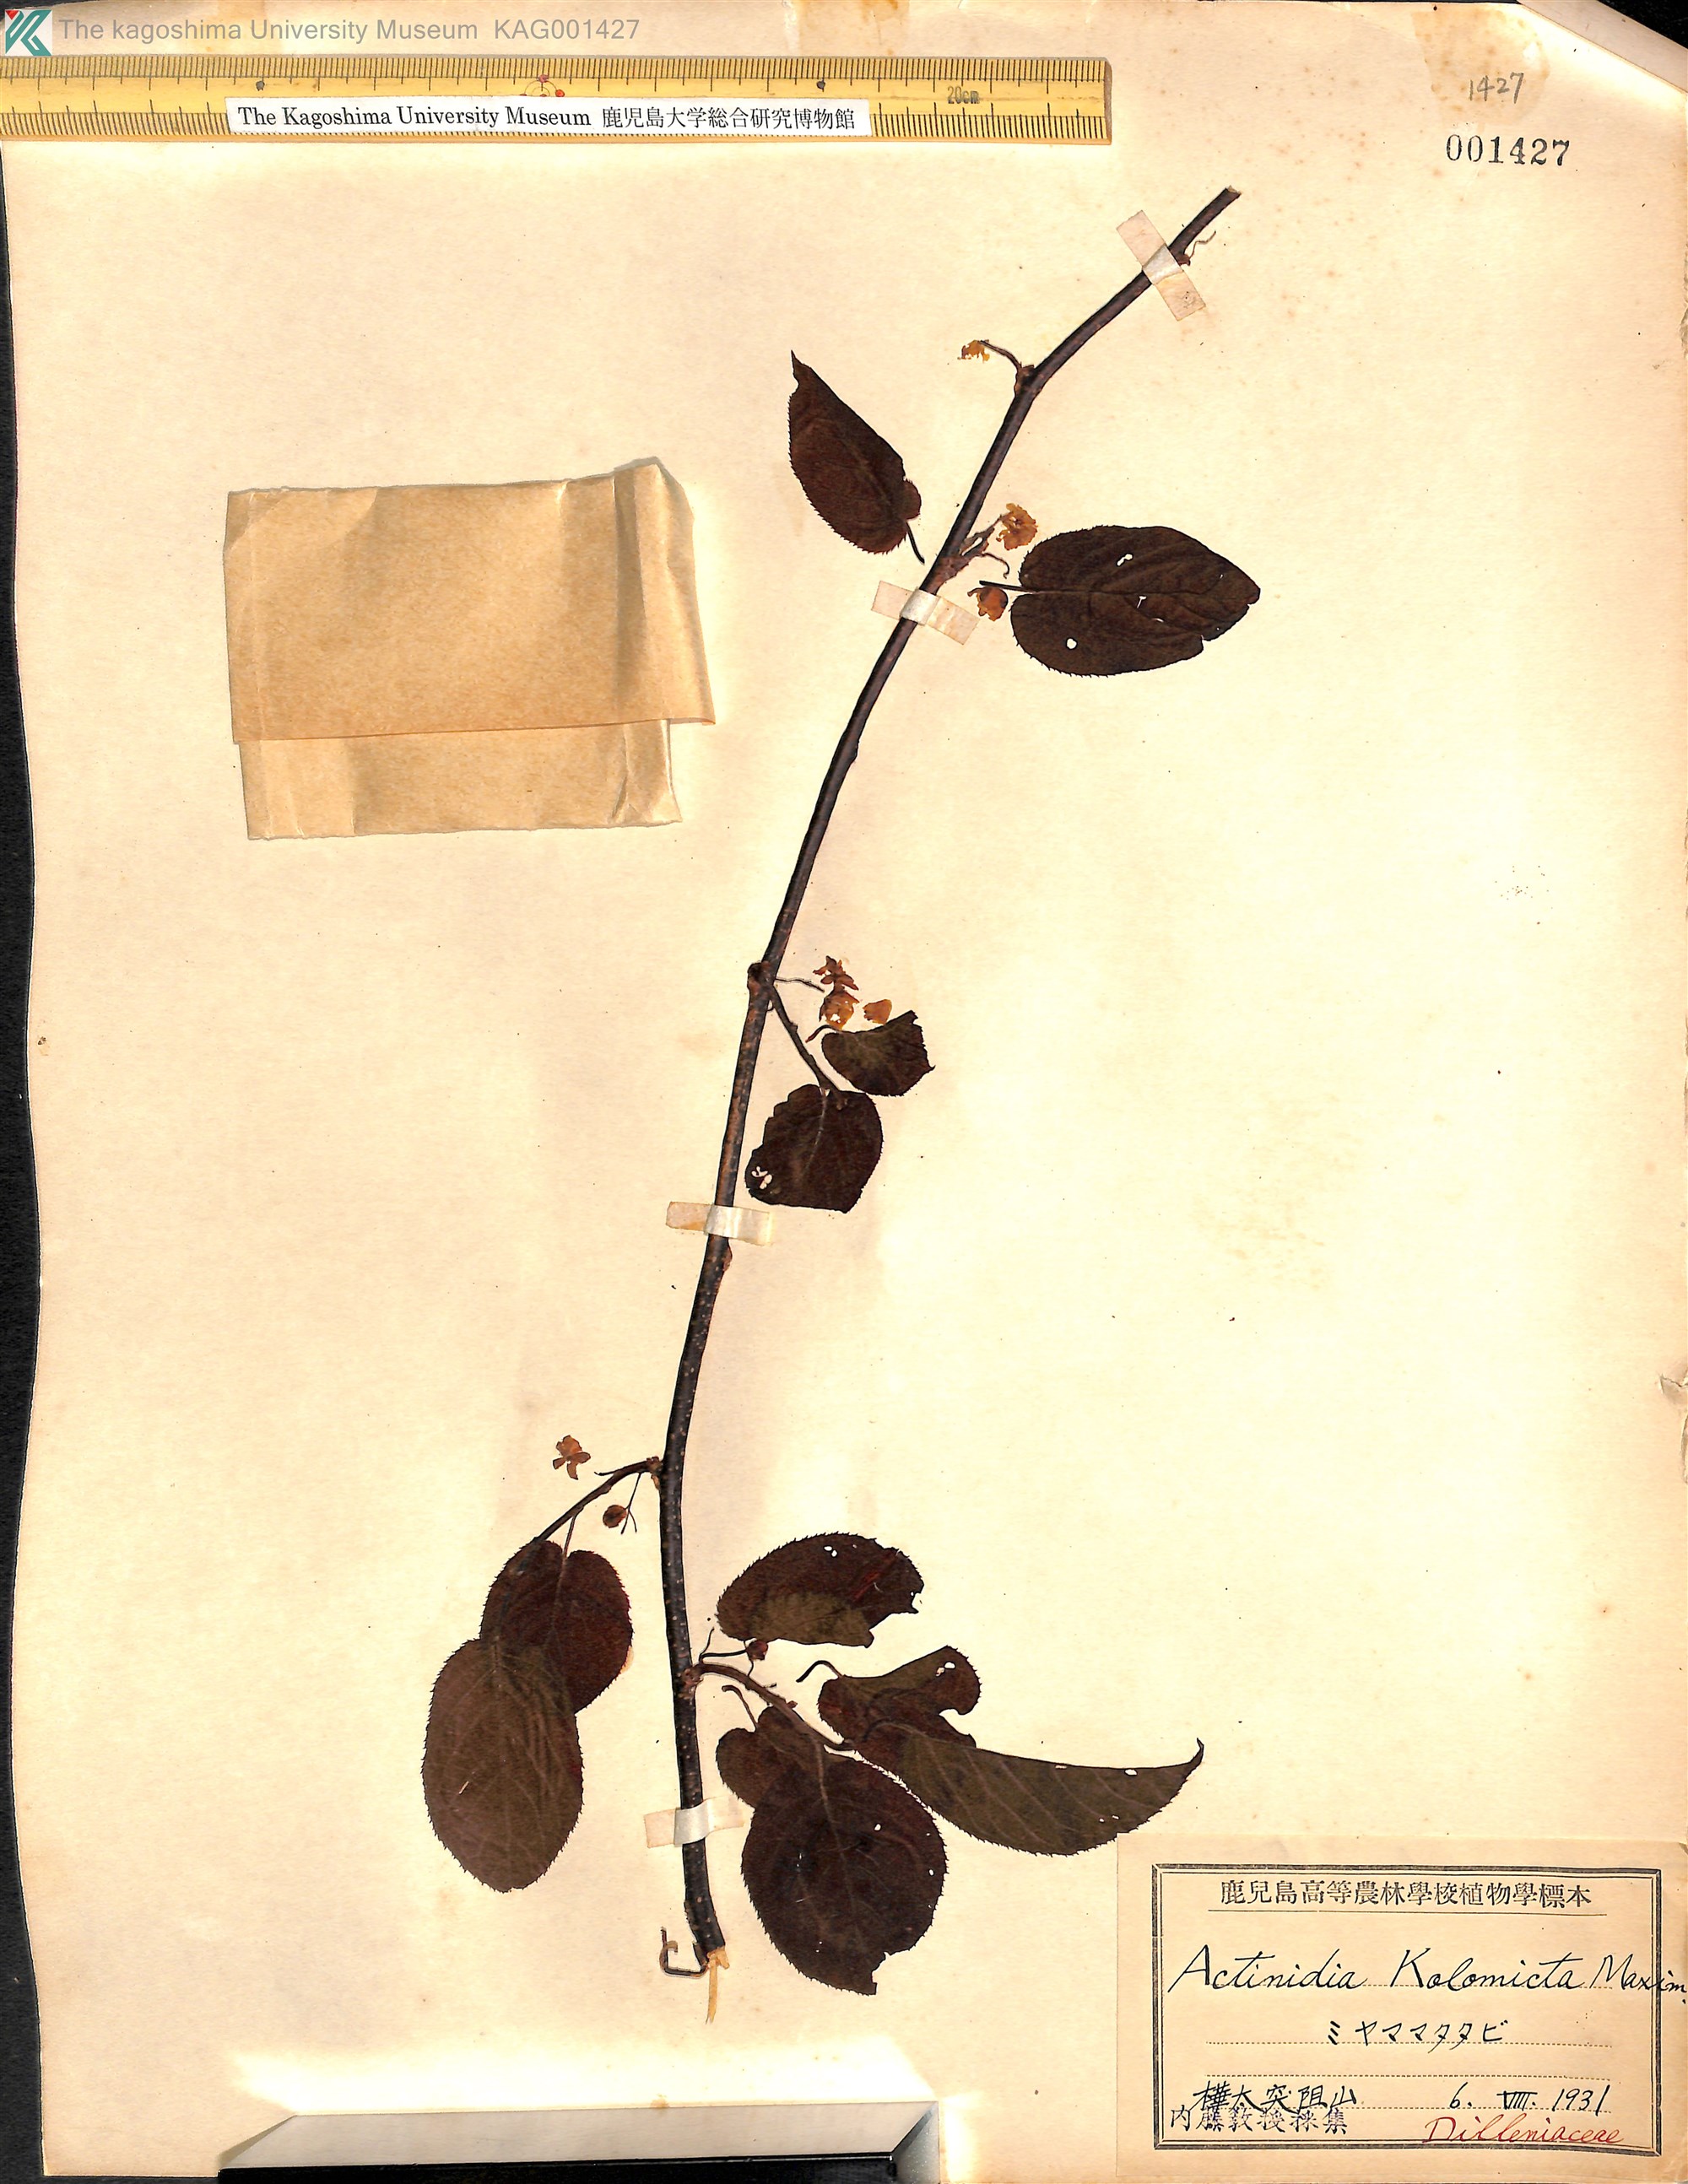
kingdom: Plantae
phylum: Tracheophyta
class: Magnoliopsida
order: Ericales
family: Actinidiaceae
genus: Actinidia
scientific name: Actinidia kolomikta
